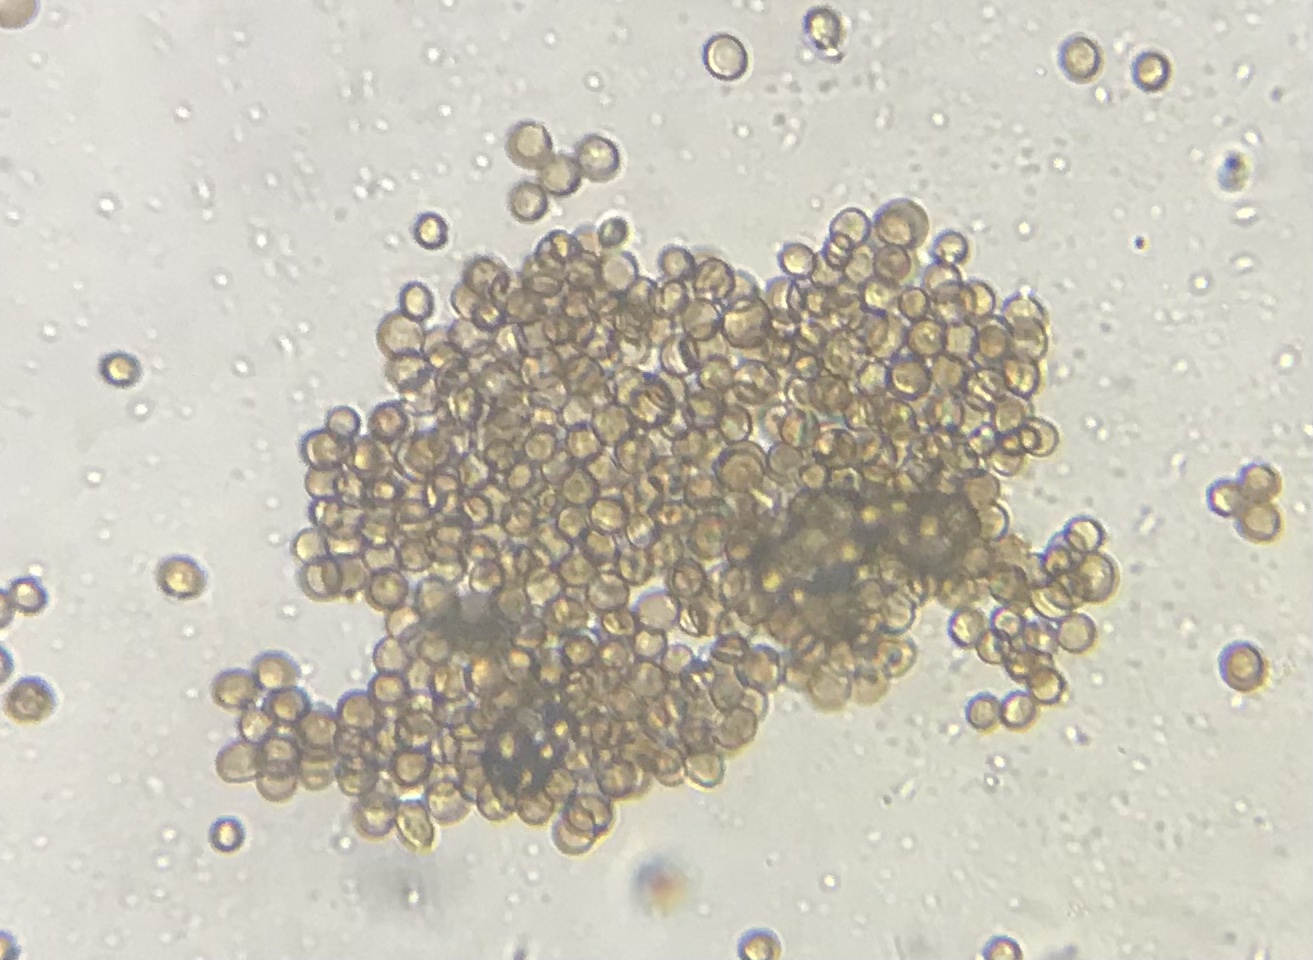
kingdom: Fungi
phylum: Basidiomycota
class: Atractiellomycetes
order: Atractiellales
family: Phleogenaceae
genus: Phleogena
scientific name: Phleogena faginea
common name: pudderkølle
